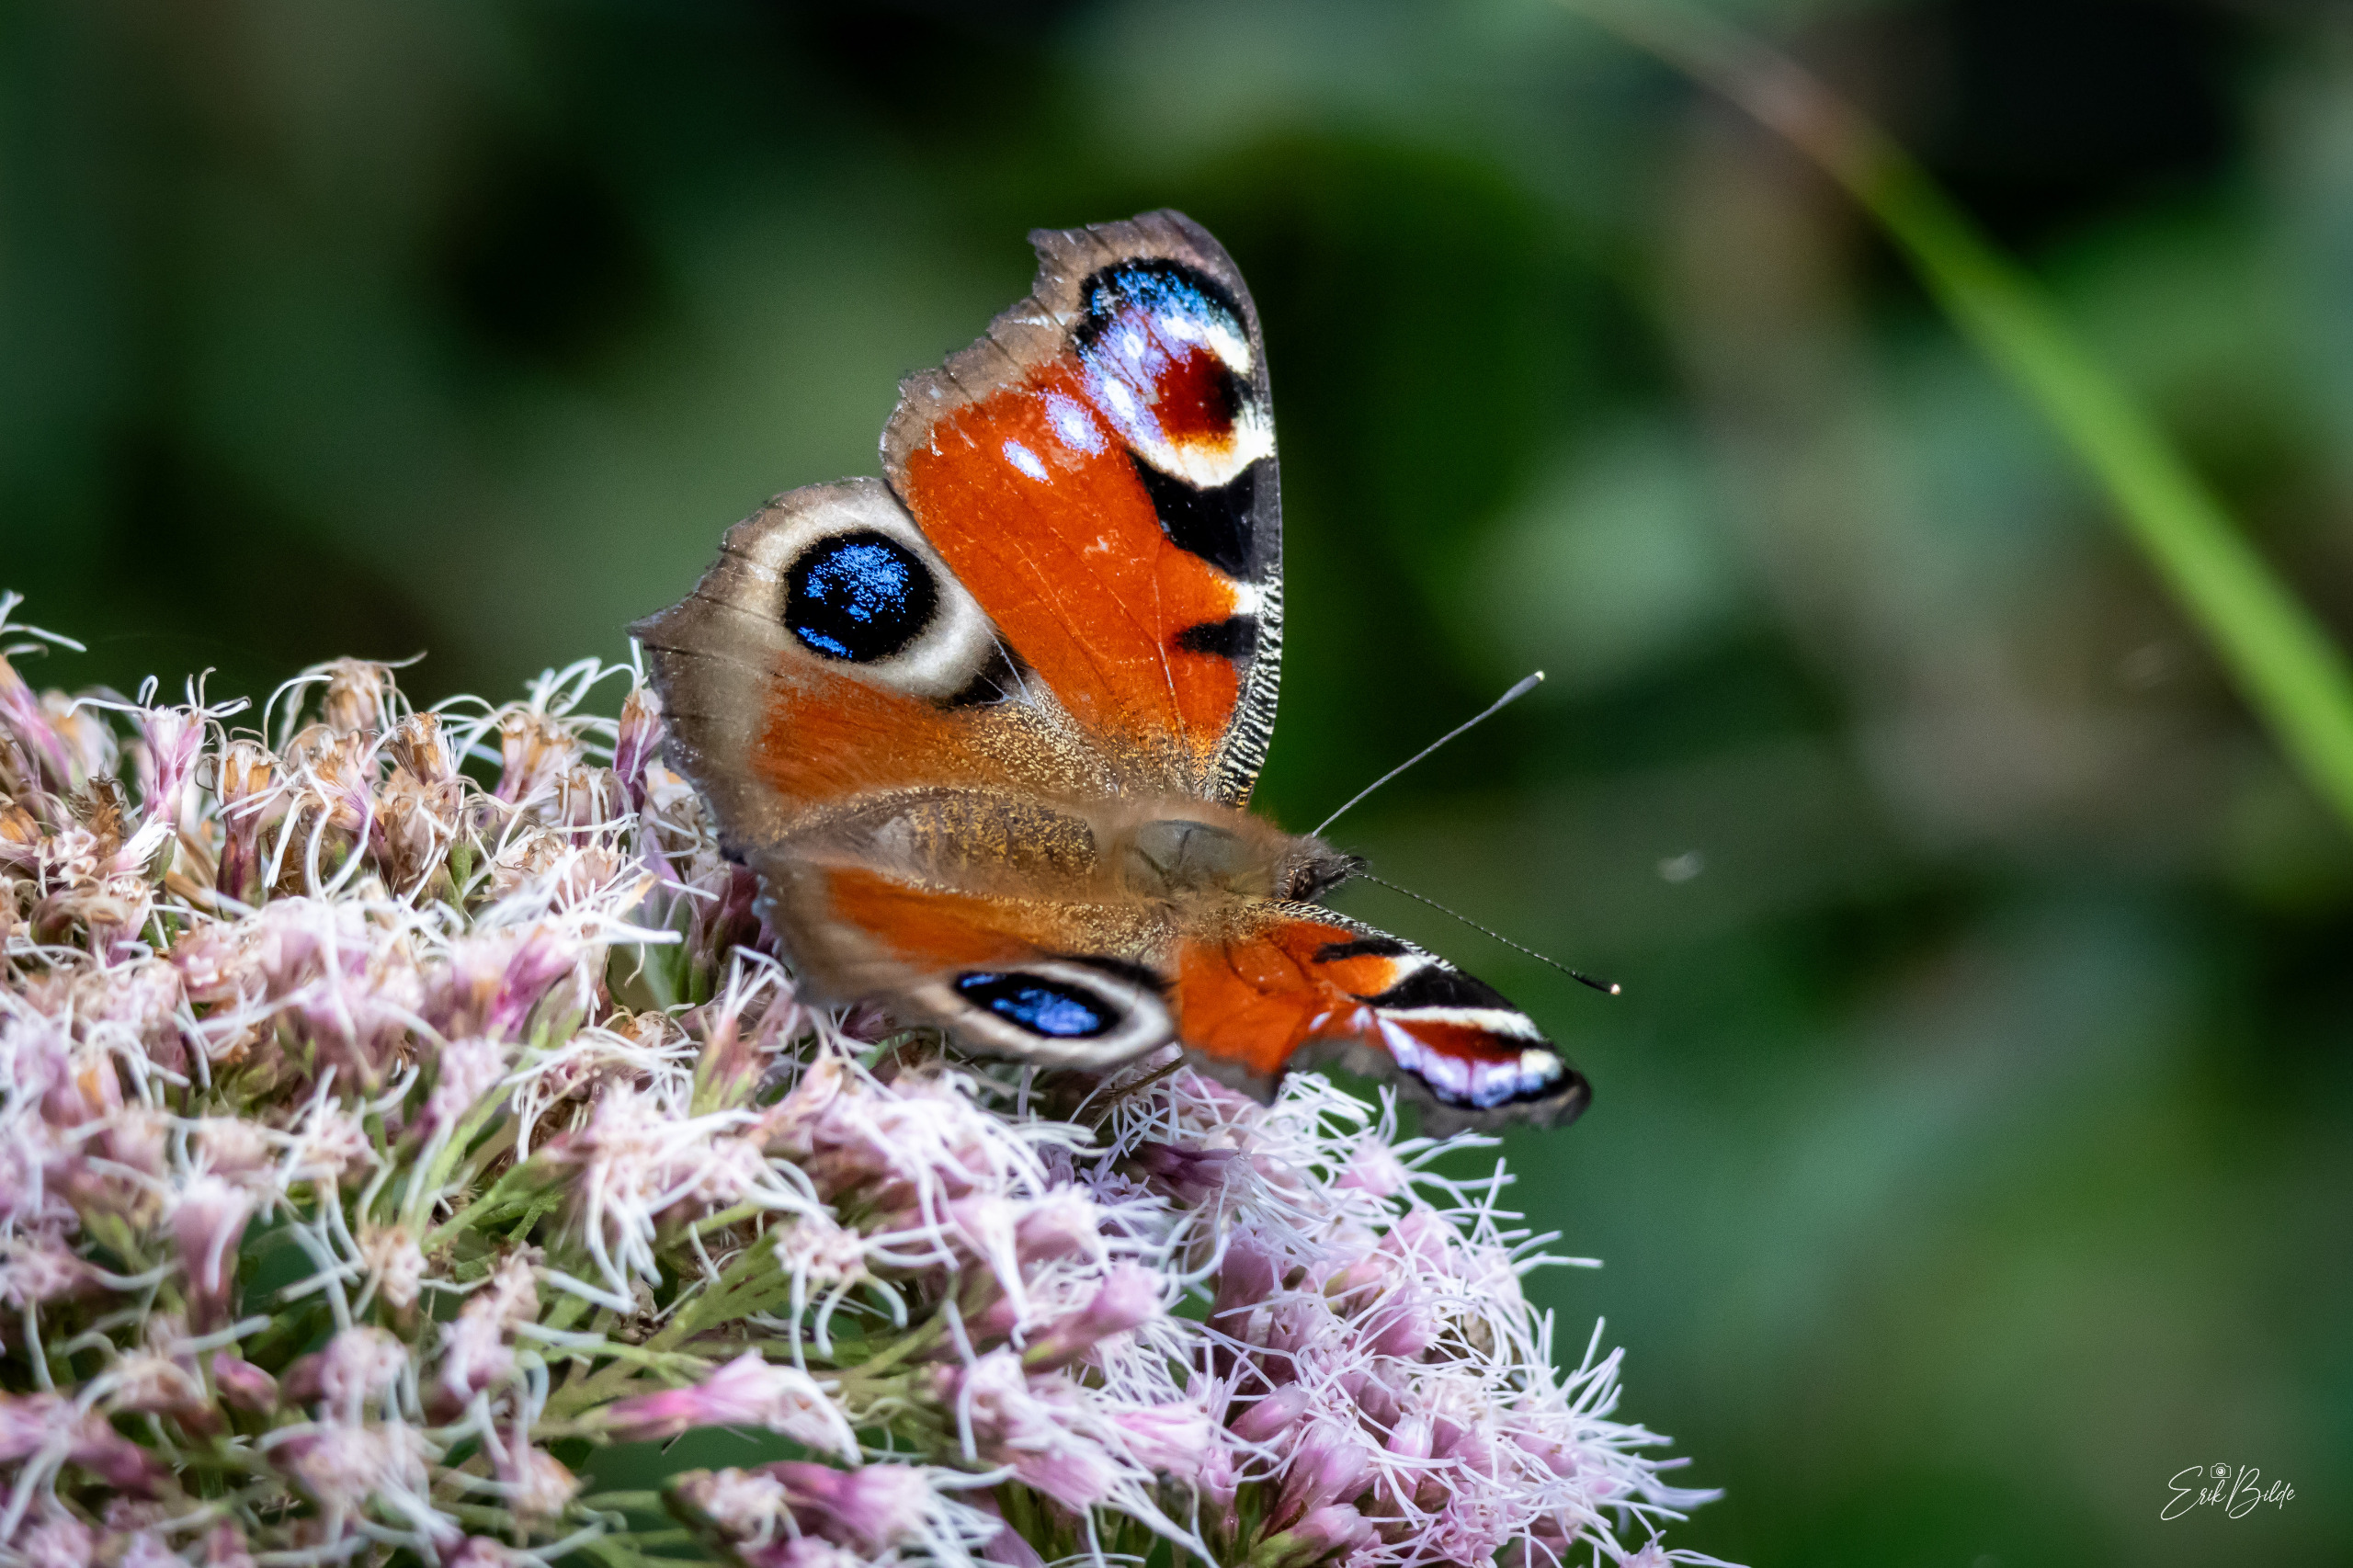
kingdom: Animalia
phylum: Arthropoda
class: Insecta
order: Lepidoptera
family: Nymphalidae
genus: Aglais
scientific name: Aglais io
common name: Dagpåfugleøje
